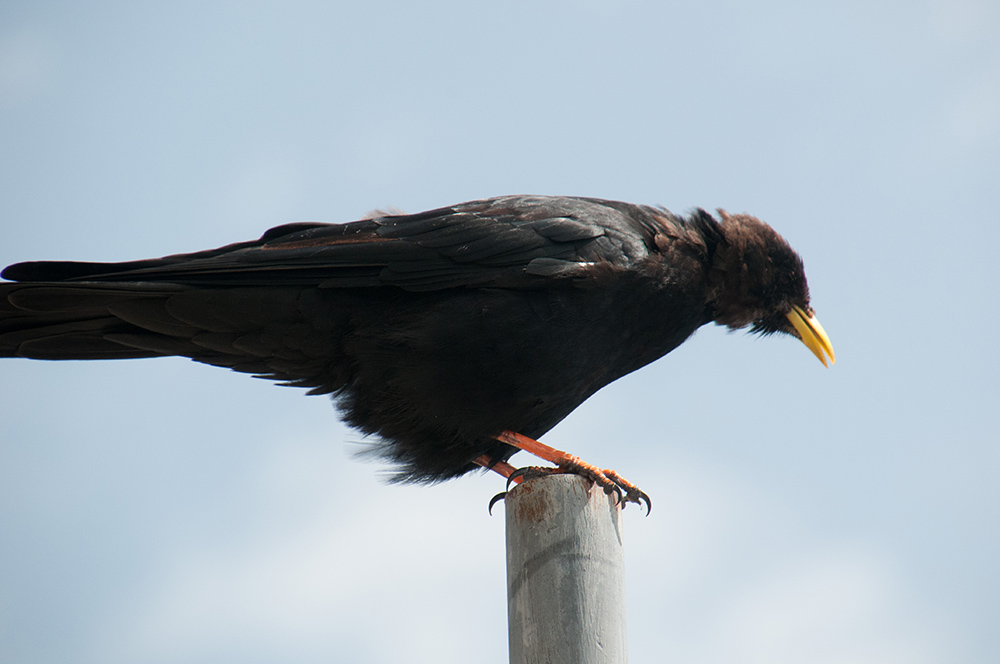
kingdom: Animalia
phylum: Chordata
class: Aves
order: Passeriformes
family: Corvidae
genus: Pyrrhocorax
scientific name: Pyrrhocorax graculus
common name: Alpine chough
